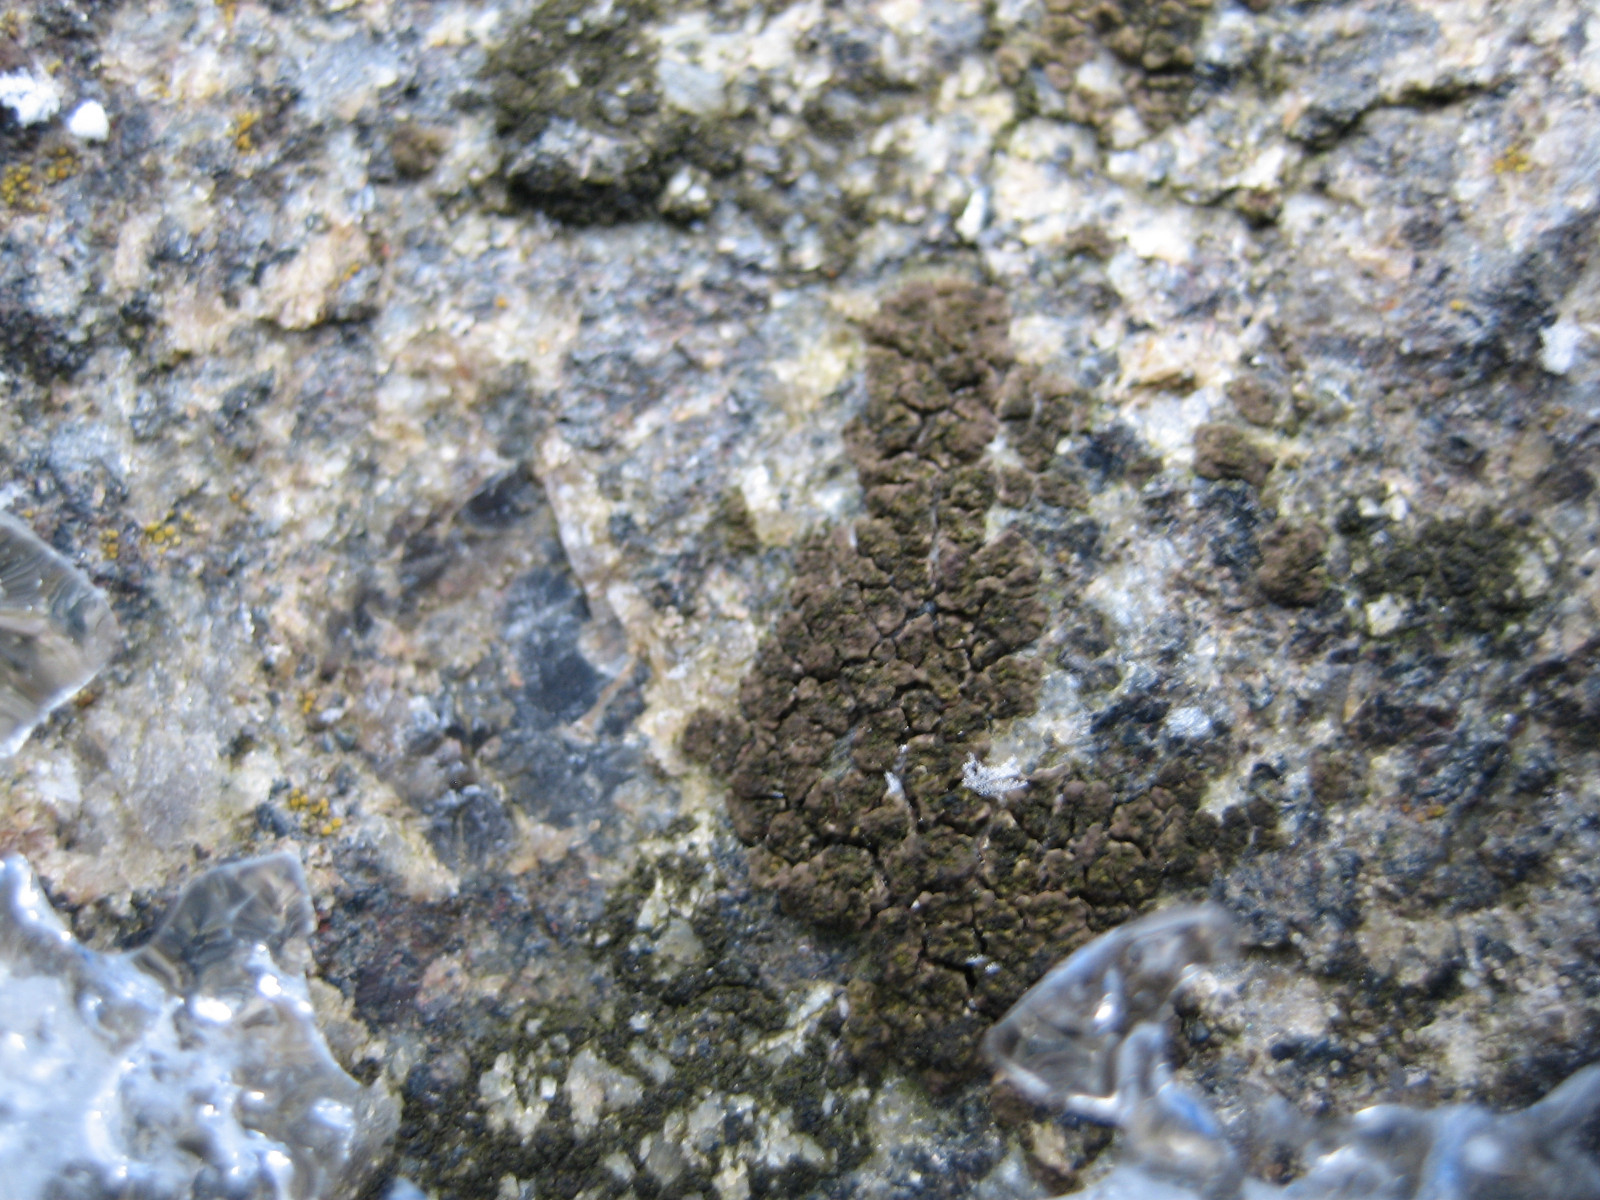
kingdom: Fungi
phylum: Ascomycota
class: Lecanoromycetes
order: Acarosporales
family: Acarosporaceae
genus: Acarospora
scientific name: Acarospora fuscata
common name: brun småsporelav
